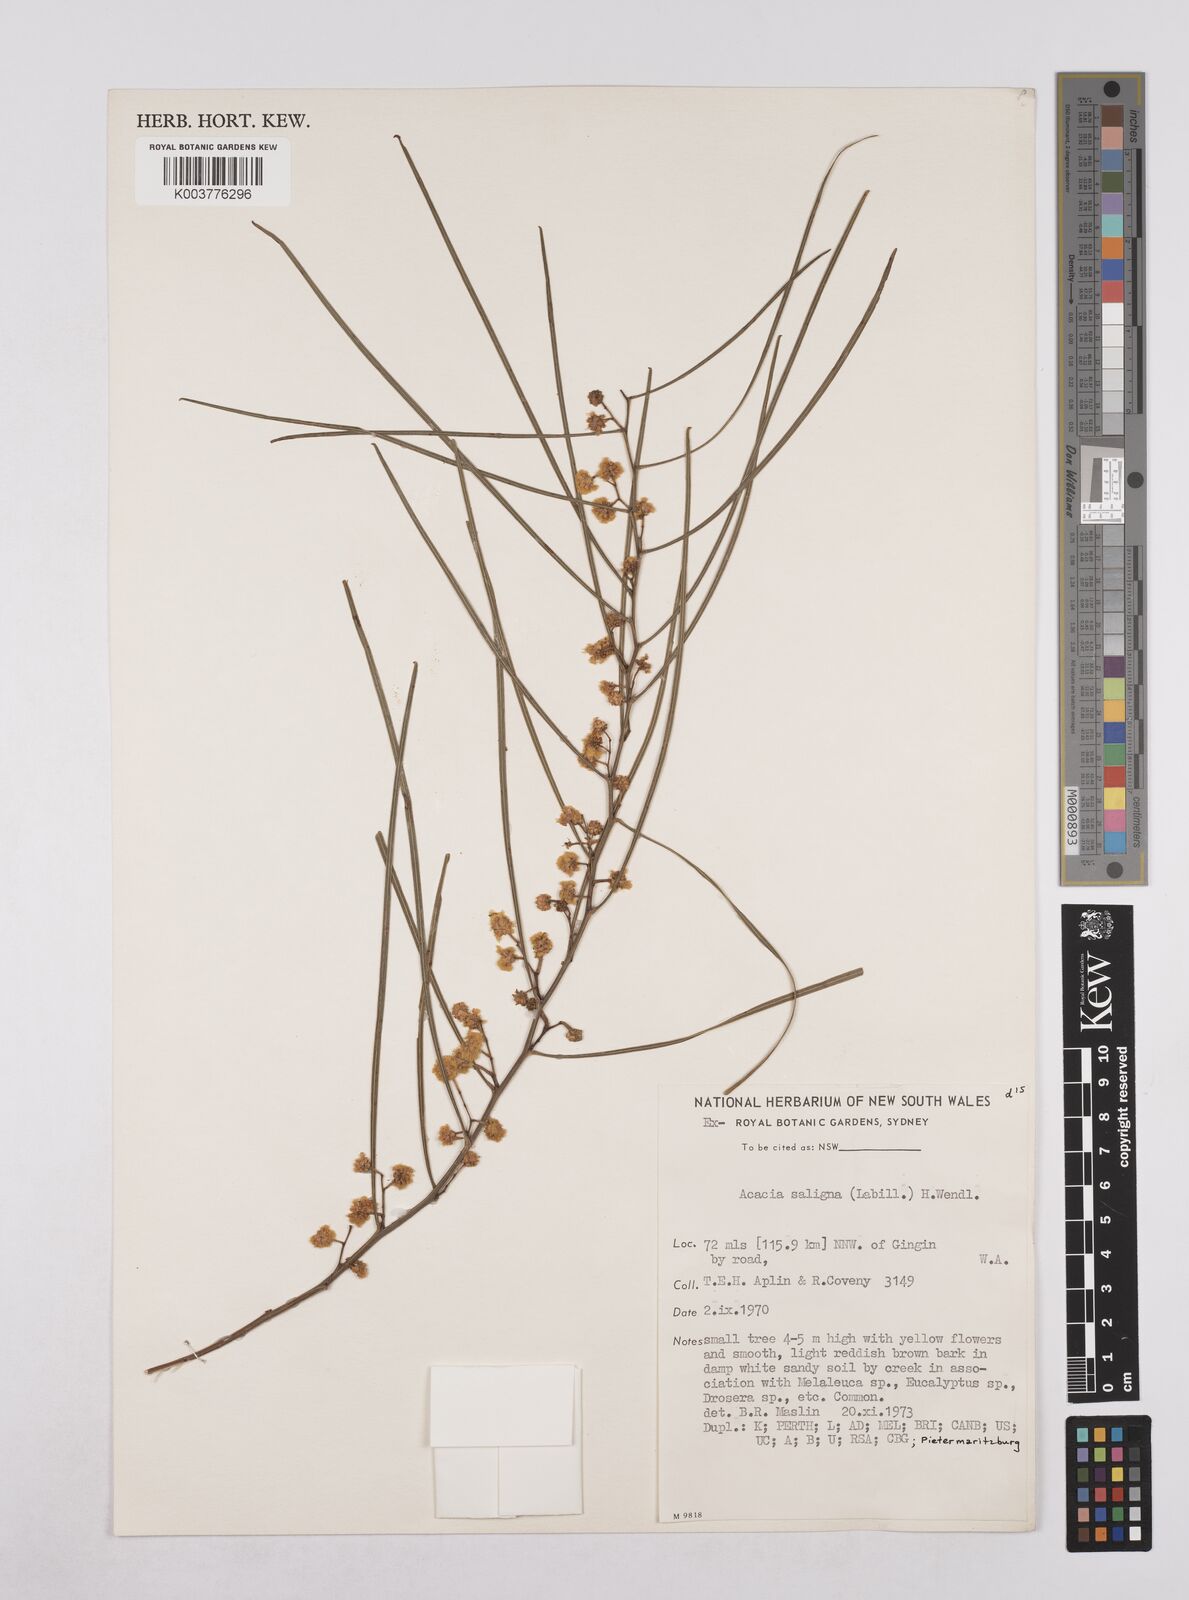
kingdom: Plantae
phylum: Tracheophyta
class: Magnoliopsida
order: Fabales
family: Fabaceae
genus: Acacia
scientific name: Acacia saligna
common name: Orange wattle
